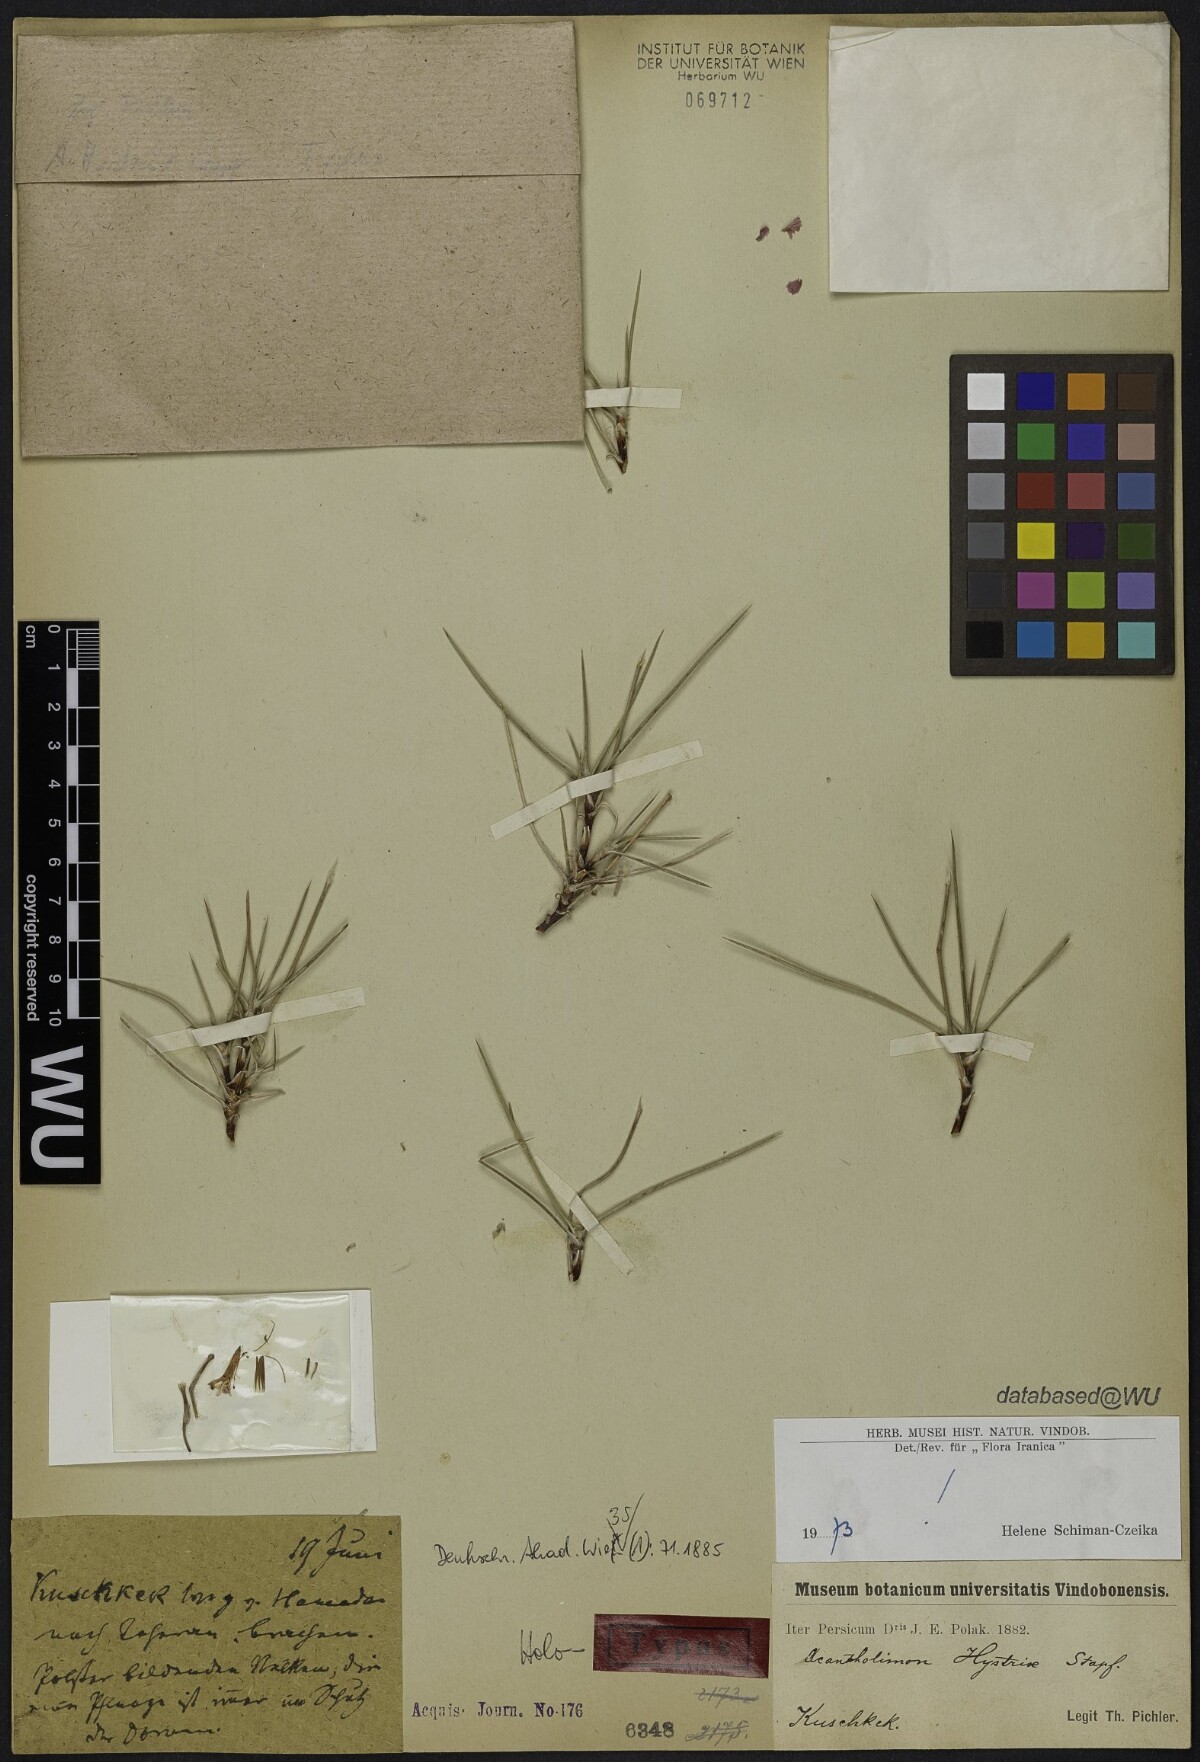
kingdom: Plantae
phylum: Tracheophyta
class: Magnoliopsida
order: Caryophyllales
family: Plumbaginaceae
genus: Acantholimon
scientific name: Acantholimon hystrix
